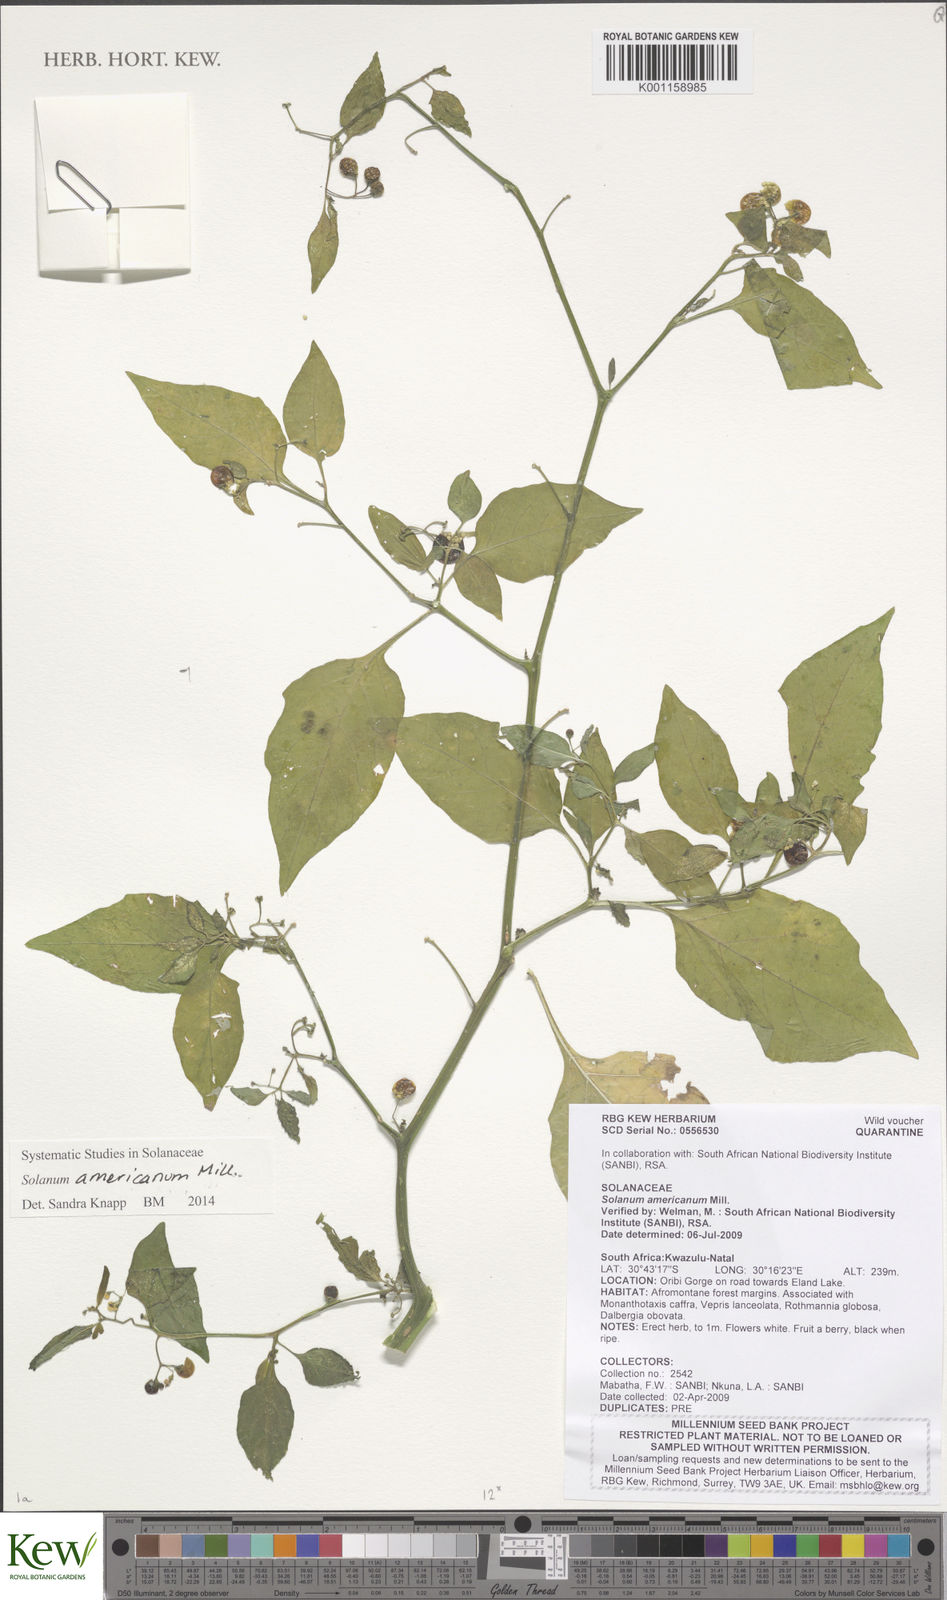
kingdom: Plantae
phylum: Tracheophyta
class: Magnoliopsida
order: Solanales
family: Solanaceae
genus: Solanum
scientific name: Solanum americanum
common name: American black nightshade
